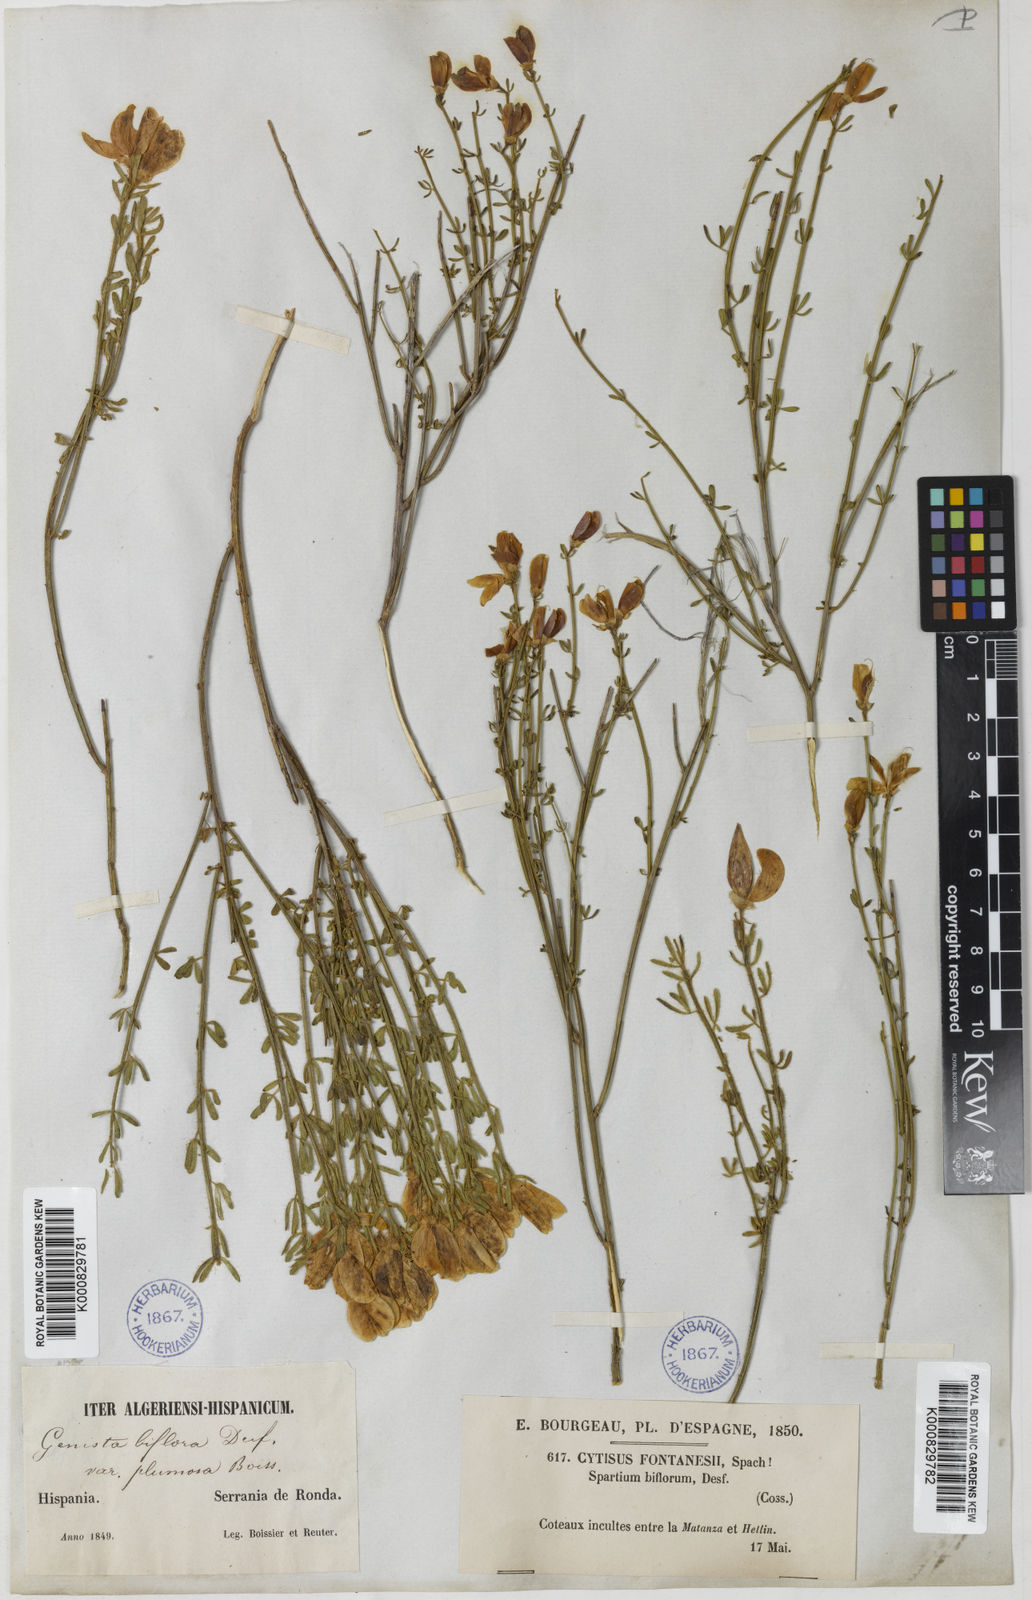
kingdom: Plantae
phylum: Tracheophyta
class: Magnoliopsida
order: Fabales
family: Fabaceae
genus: Cytisus
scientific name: Cytisus fontanesii
